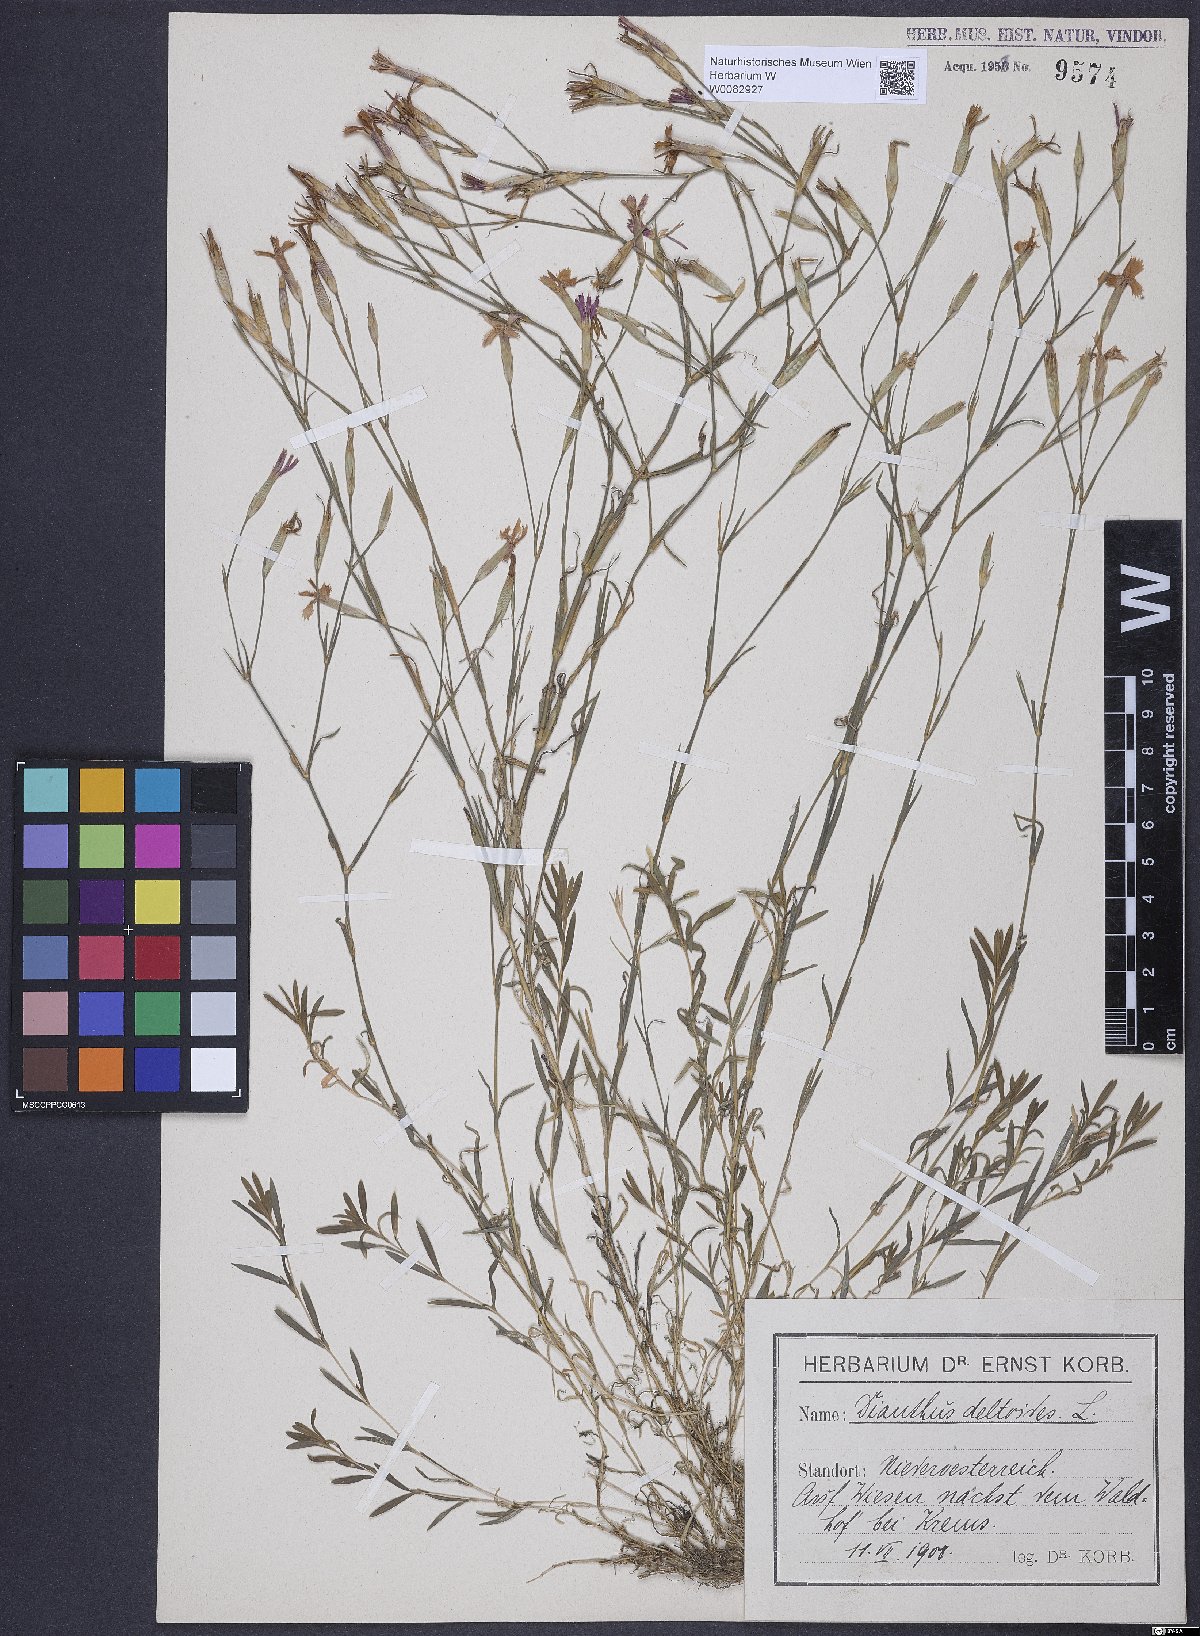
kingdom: Plantae
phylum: Tracheophyta
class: Magnoliopsida
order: Caryophyllales
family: Caryophyllaceae
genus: Dianthus
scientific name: Dianthus deltoides
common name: Maiden pink
